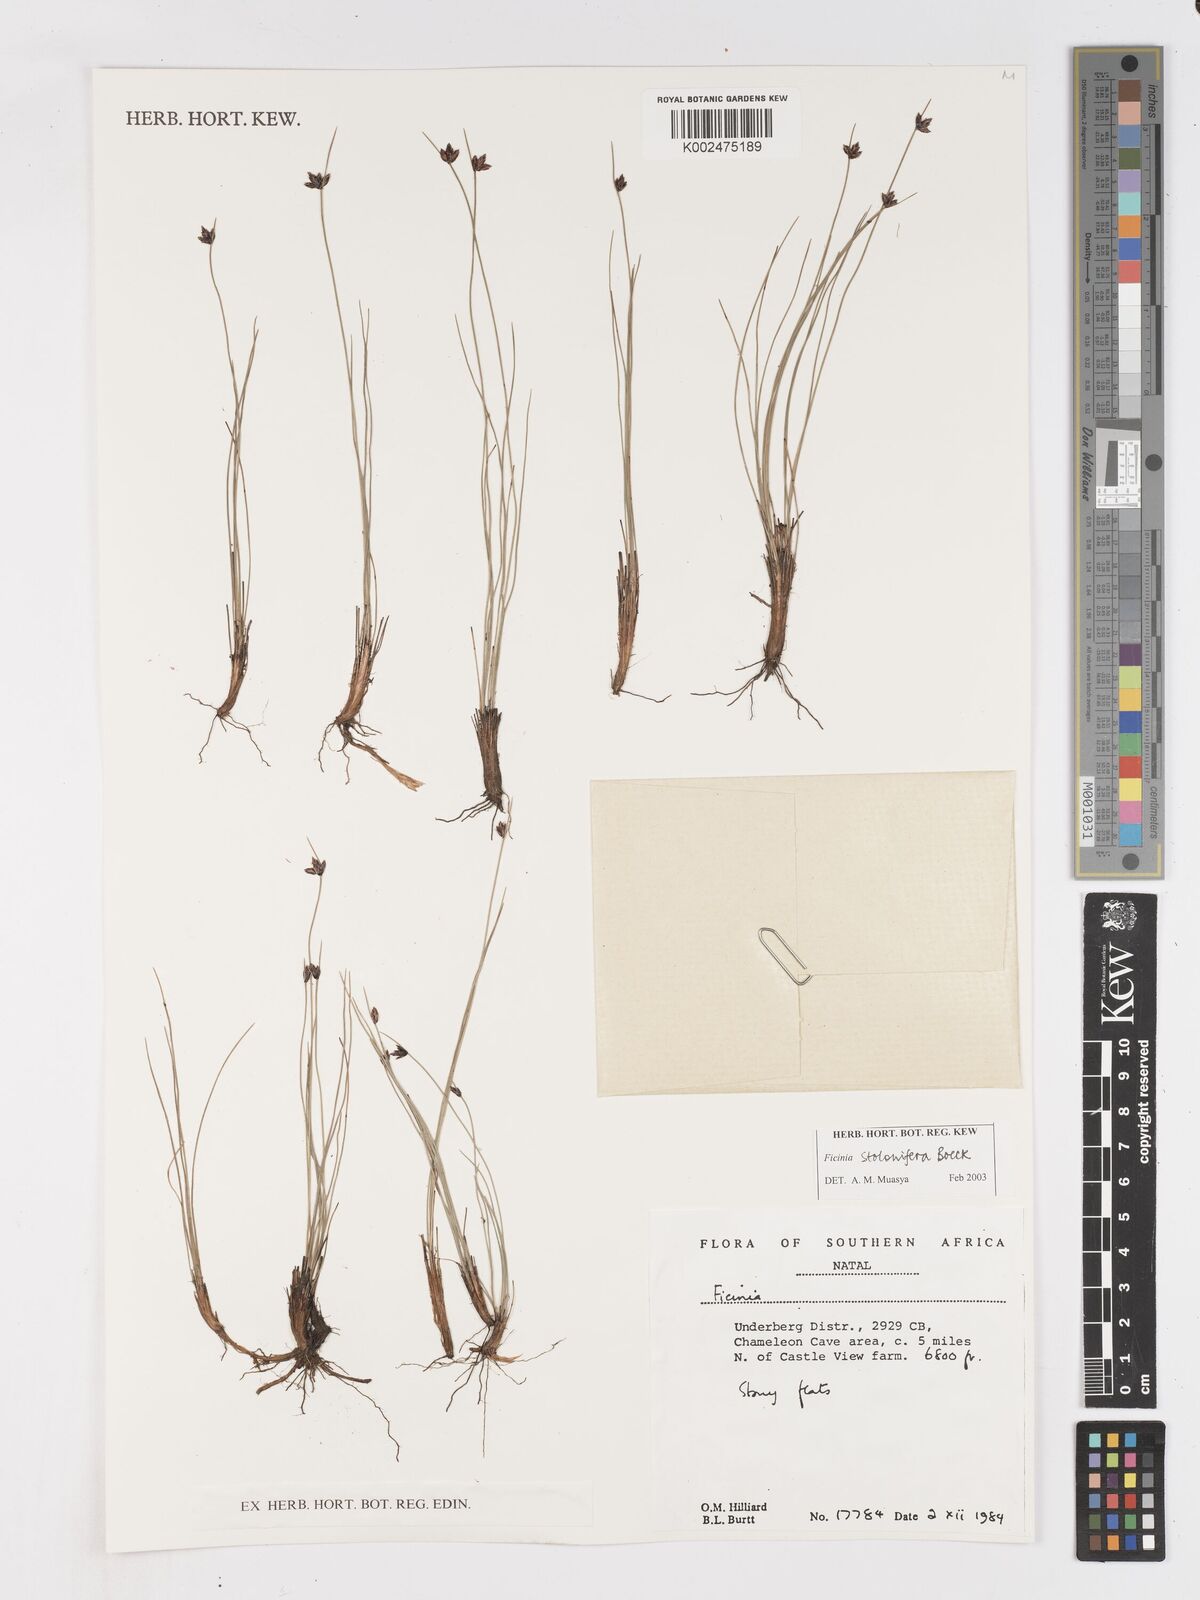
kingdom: Plantae
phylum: Tracheophyta
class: Liliopsida
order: Poales
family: Cyperaceae
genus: Ficinia
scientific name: Ficinia stolonifera
